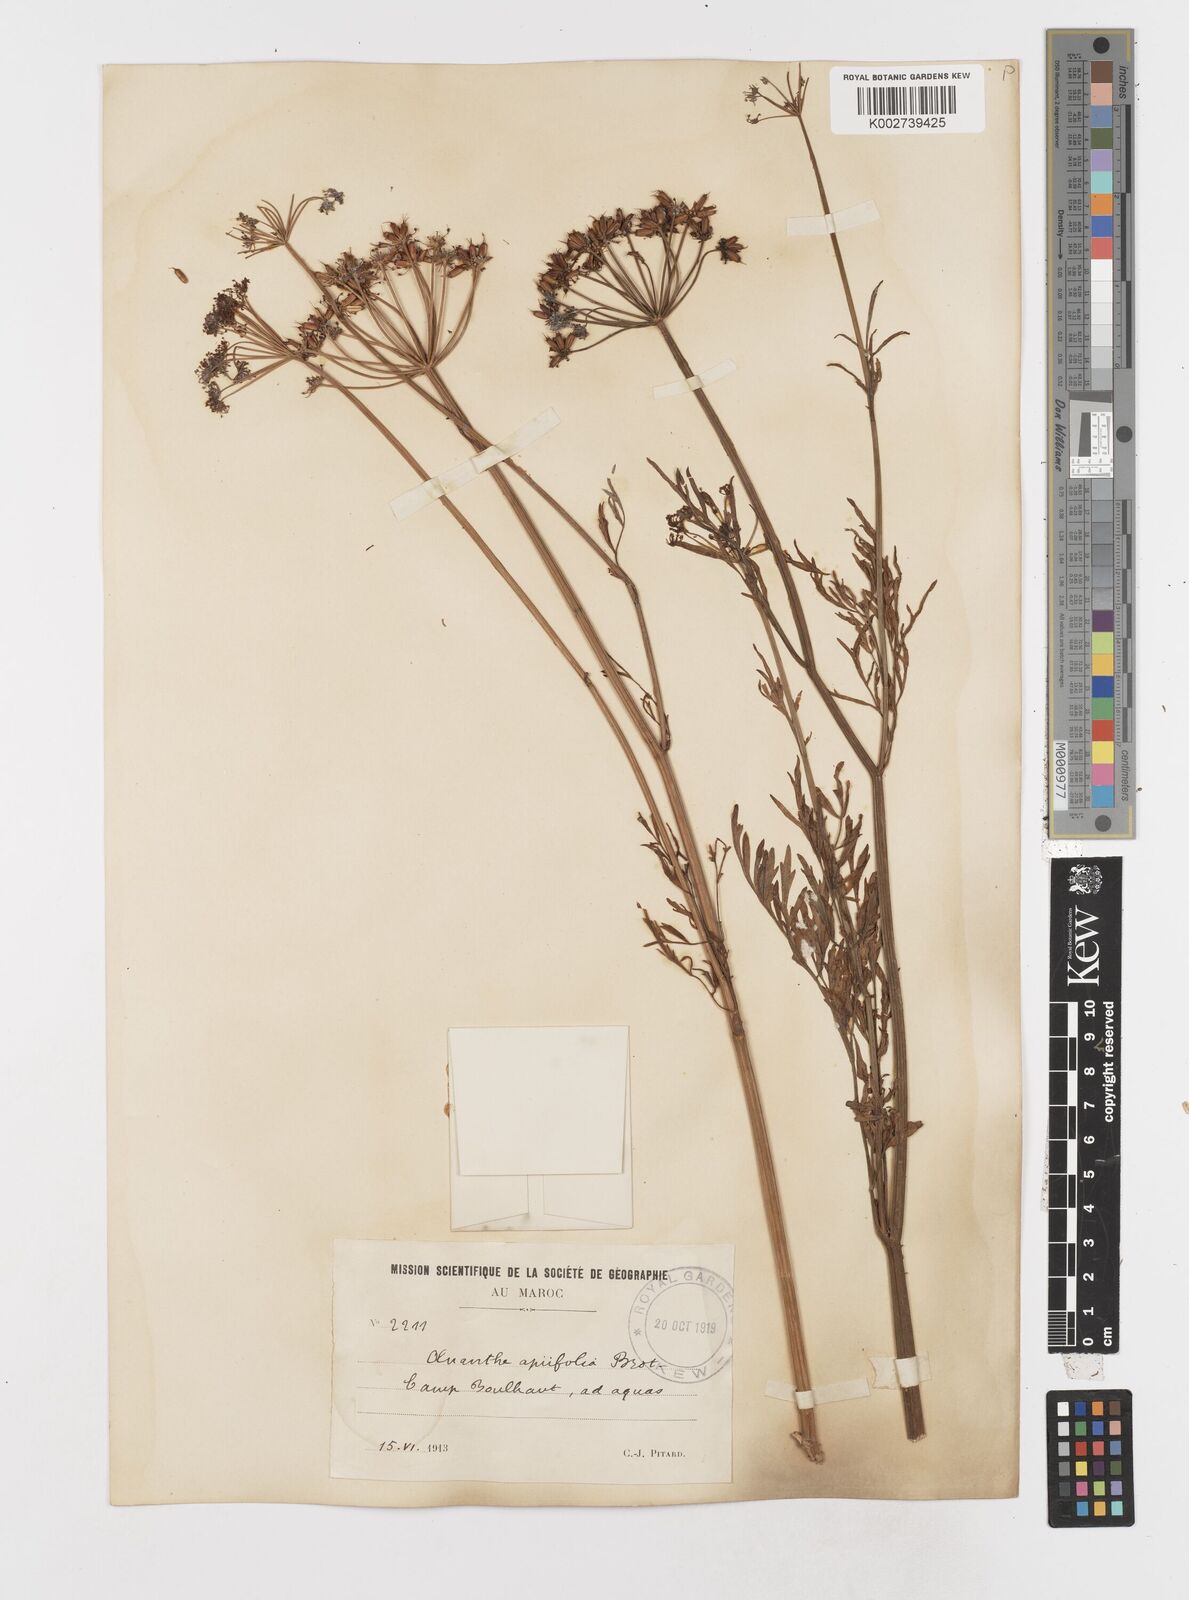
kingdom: Plantae
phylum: Tracheophyta
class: Magnoliopsida
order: Apiales
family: Apiaceae
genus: Oenanthe
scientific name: Oenanthe crocata
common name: Hemlock water-dropwort
